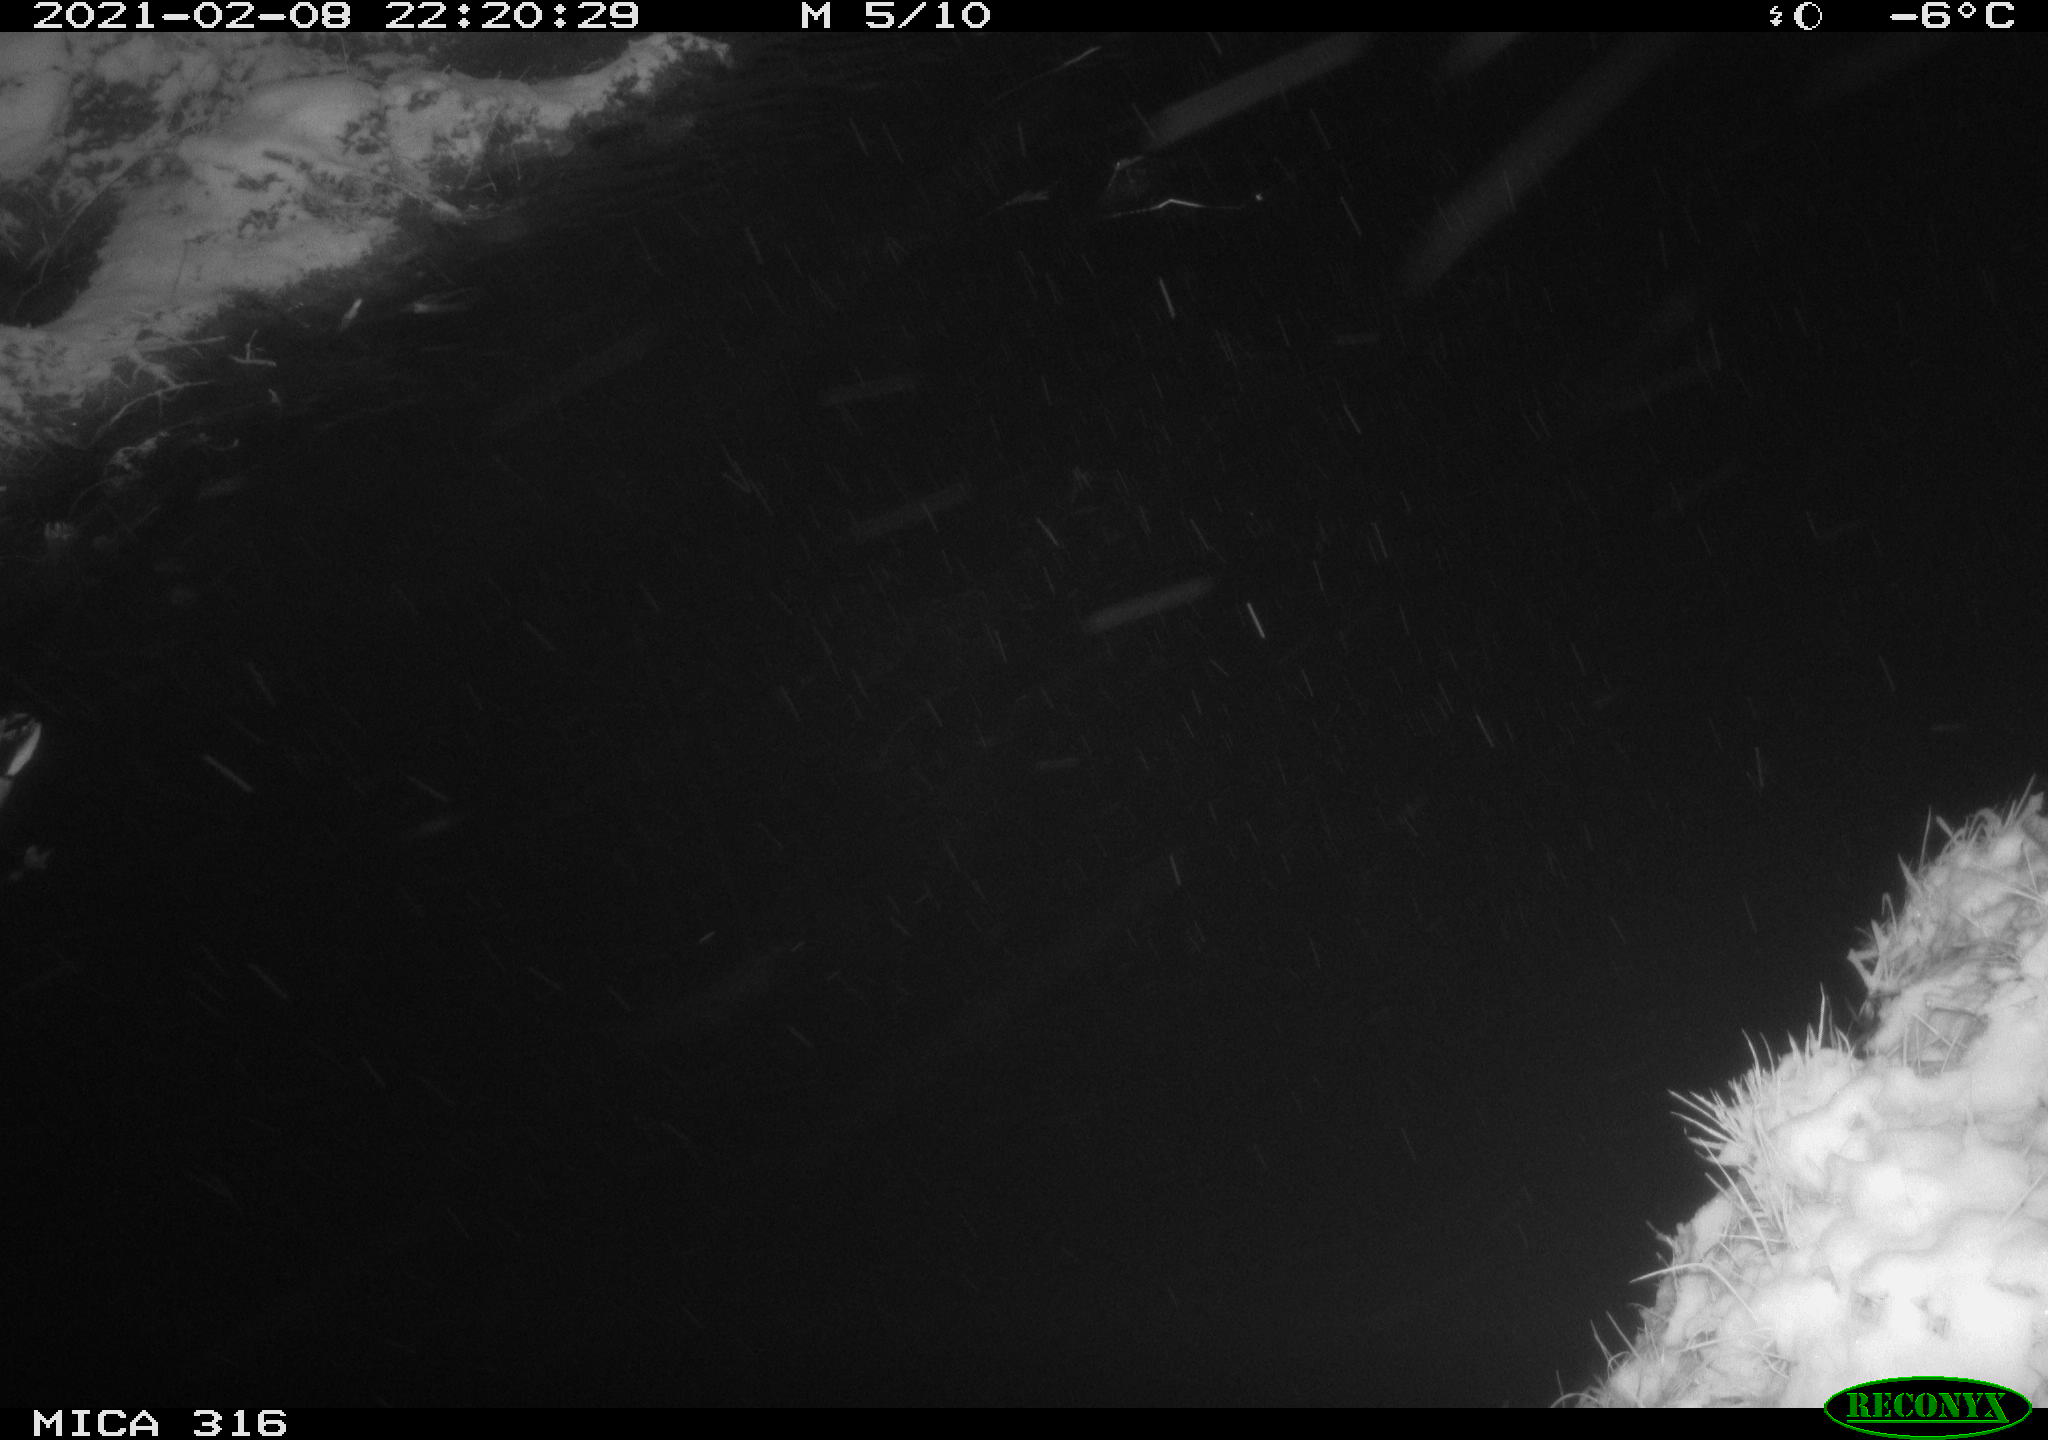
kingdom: Animalia
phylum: Chordata
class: Aves
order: Anseriformes
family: Anatidae
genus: Anas
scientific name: Anas platyrhynchos
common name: Mallard
